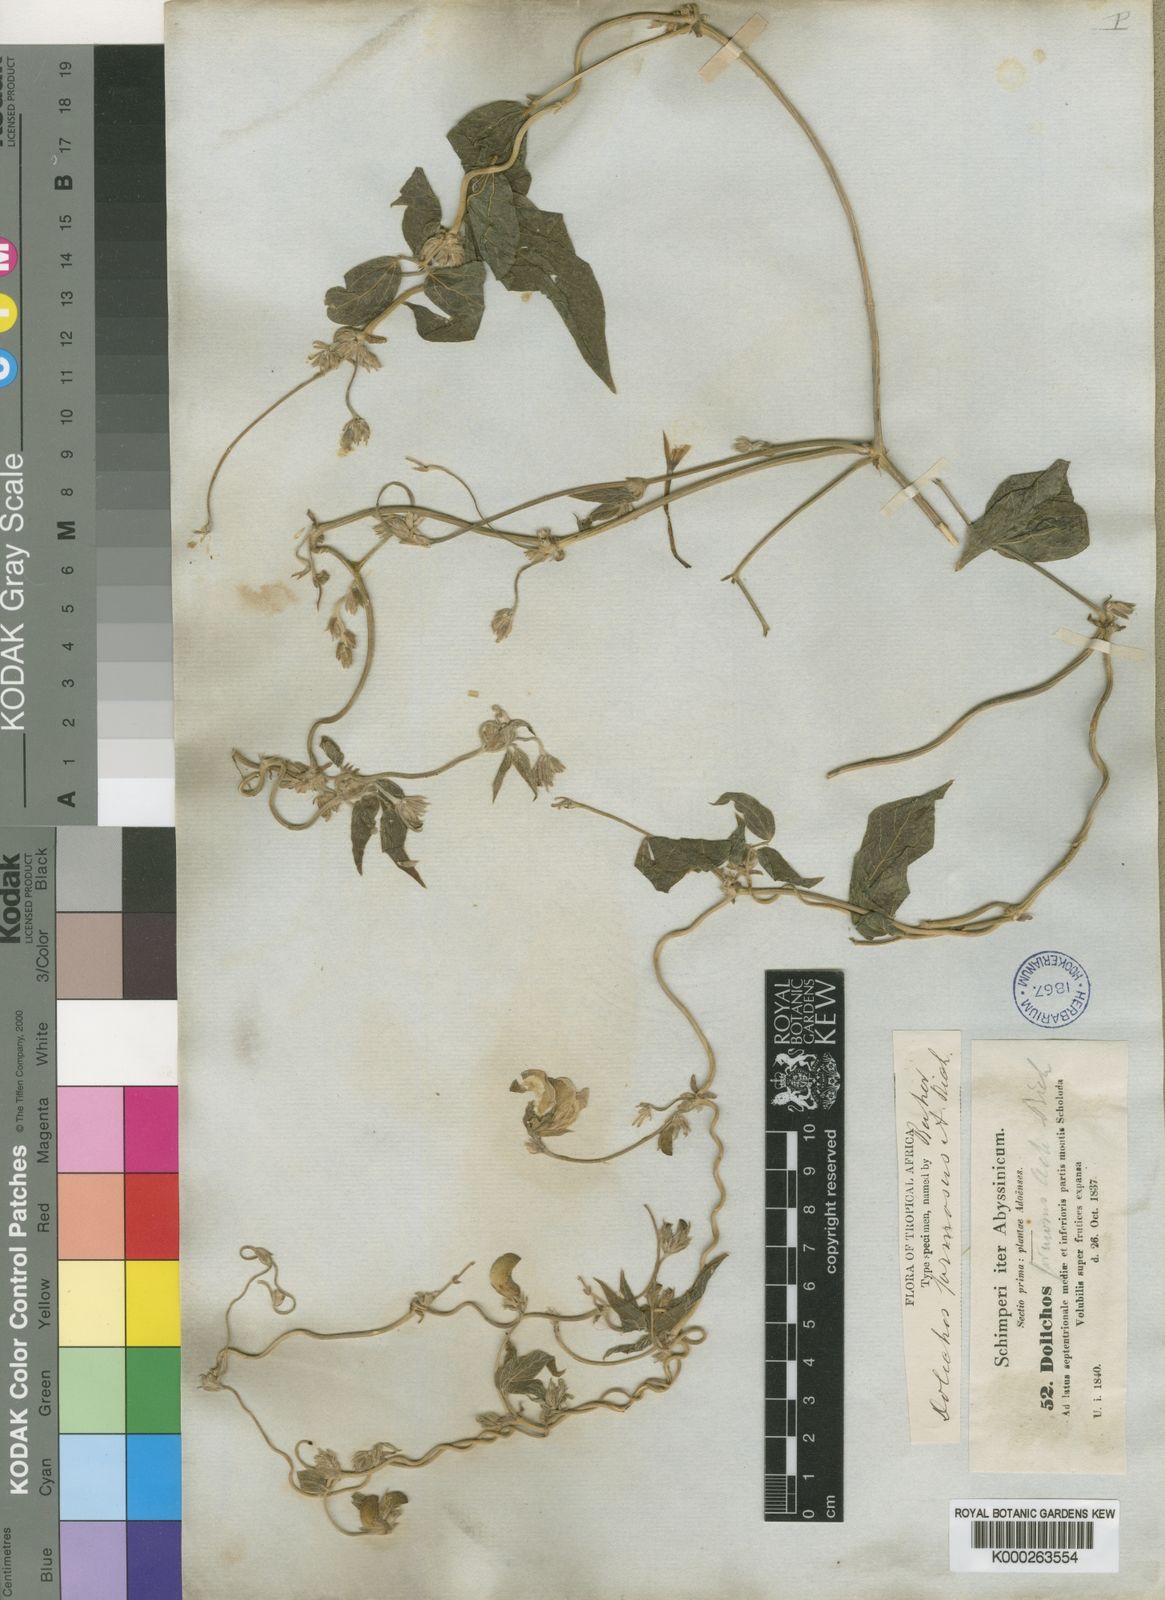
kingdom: Plantae
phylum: Tracheophyta
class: Magnoliopsida
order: Fabales
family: Fabaceae
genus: Dolichos
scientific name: Dolichos sericeus
